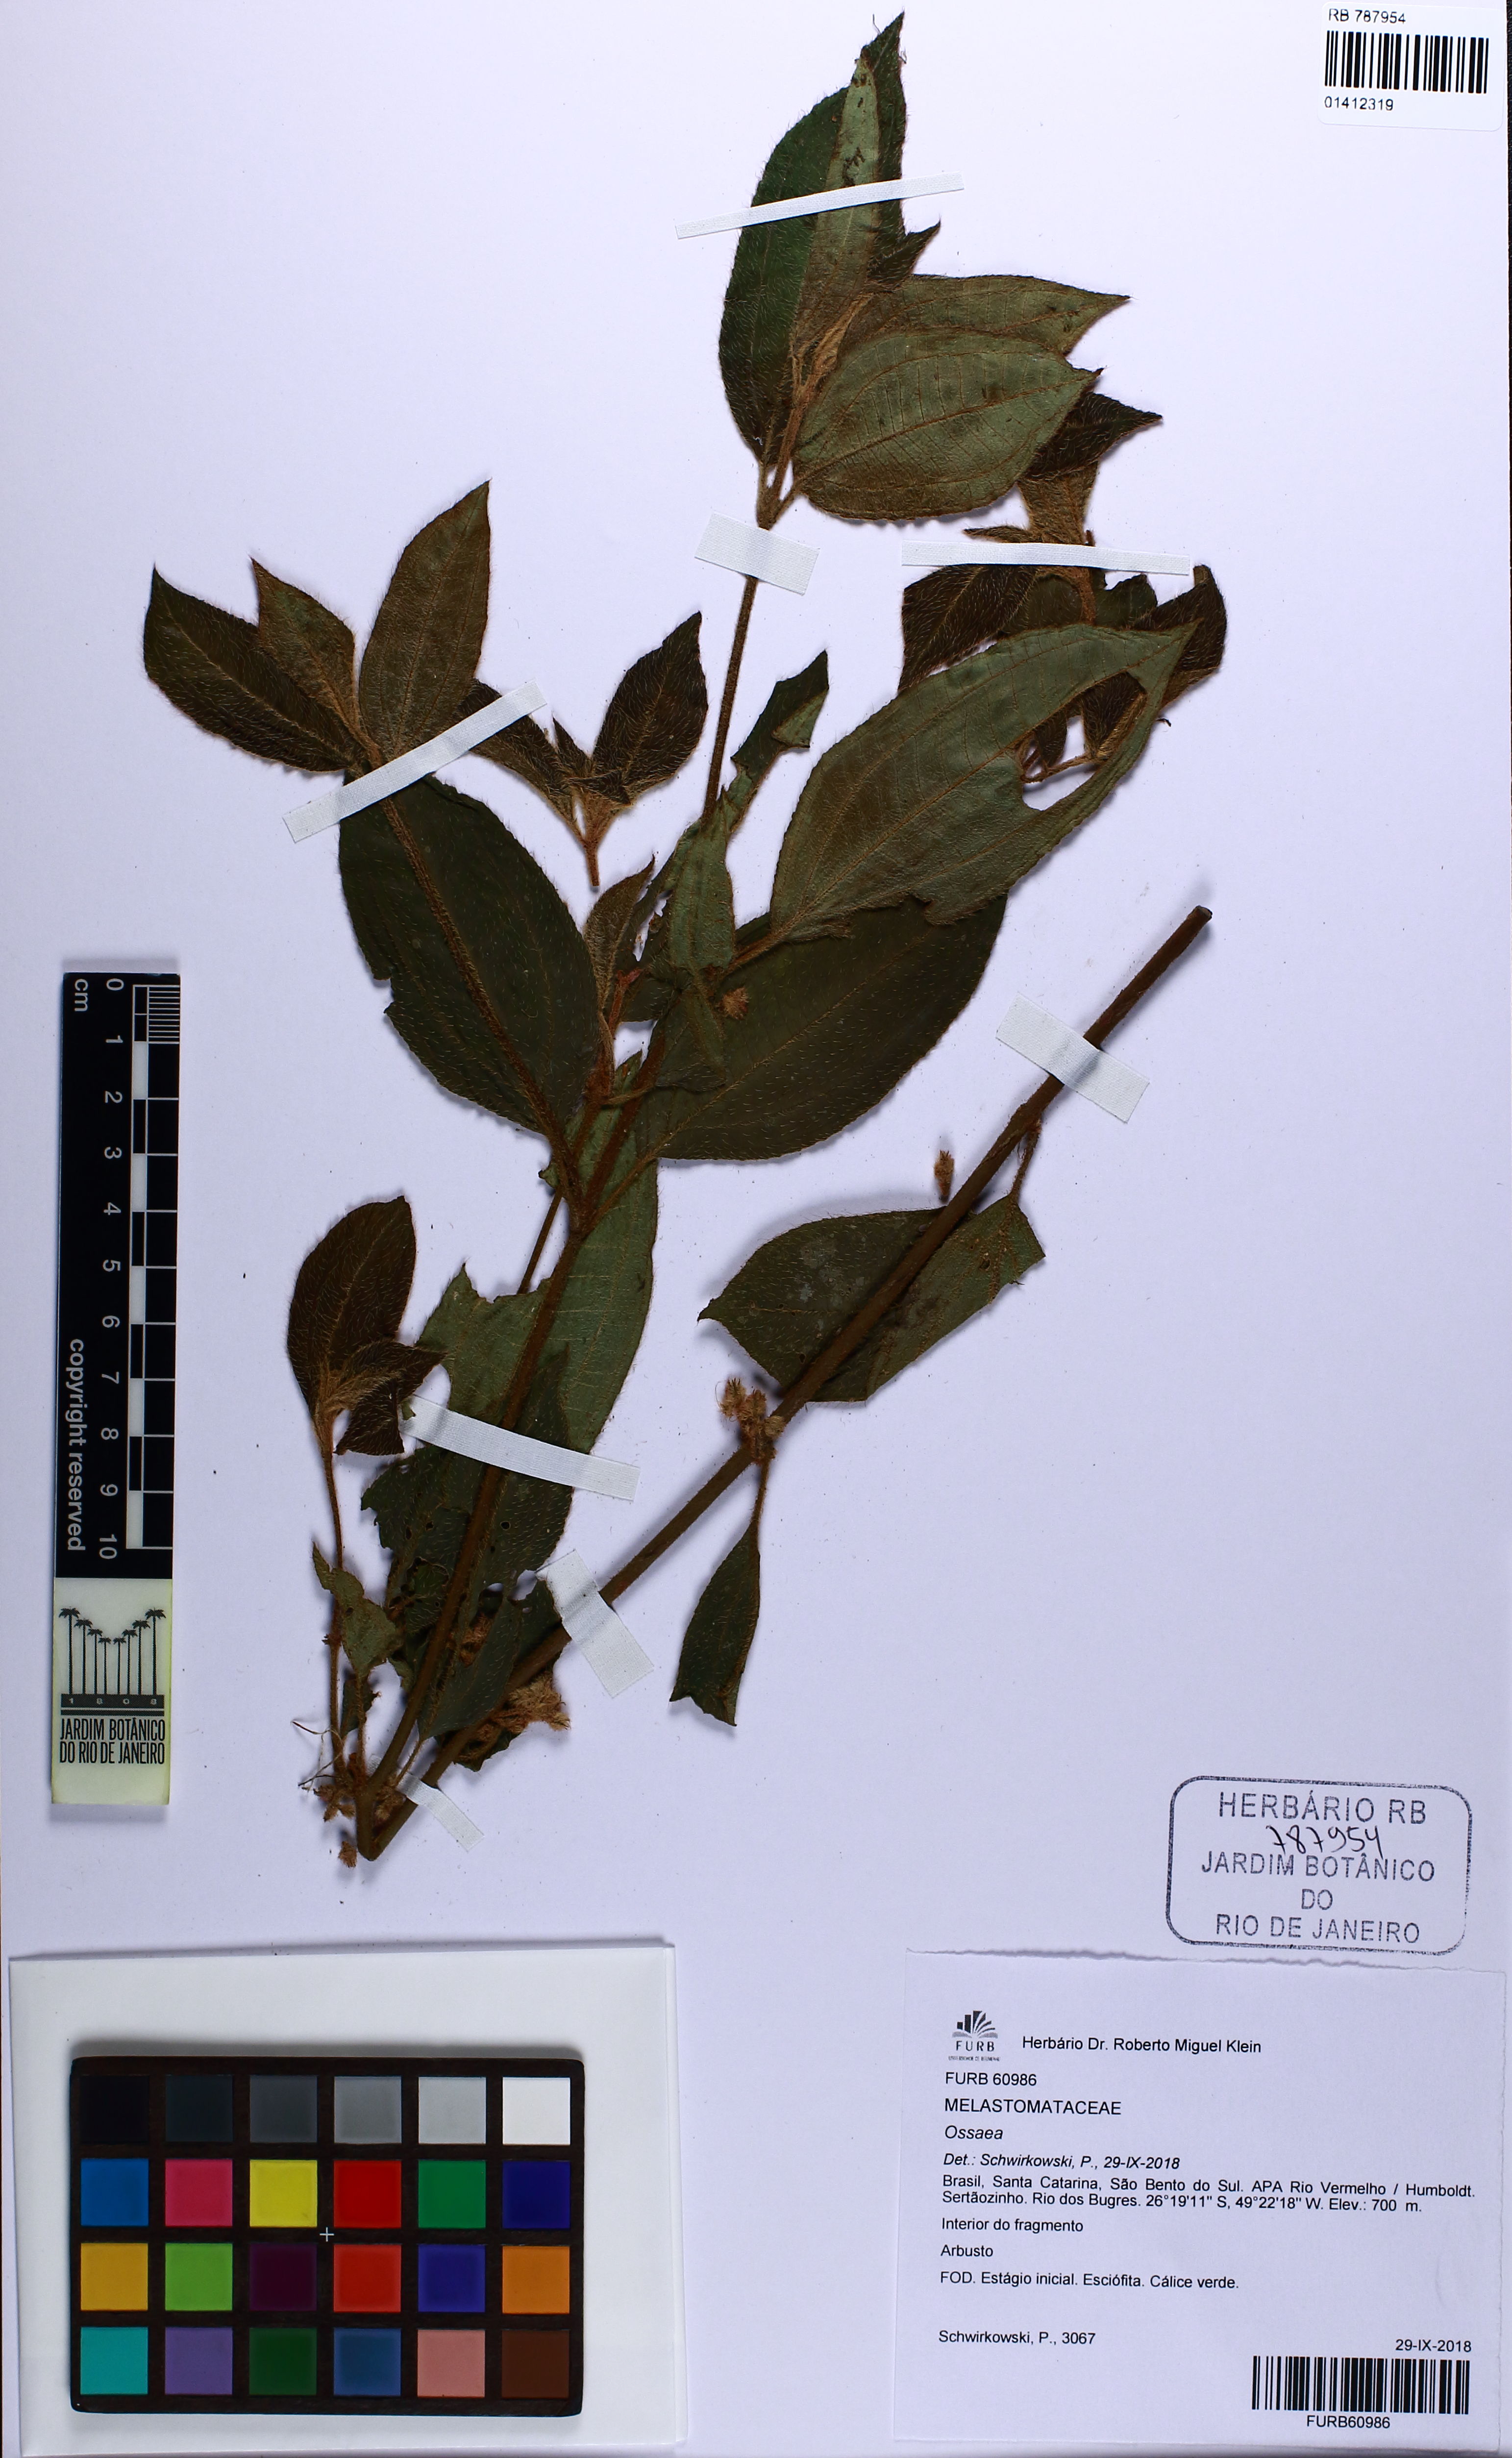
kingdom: Plantae
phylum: Tracheophyta
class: Magnoliopsida
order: Myrtales
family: Melastomataceae
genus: Ossaea
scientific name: Ossaea
